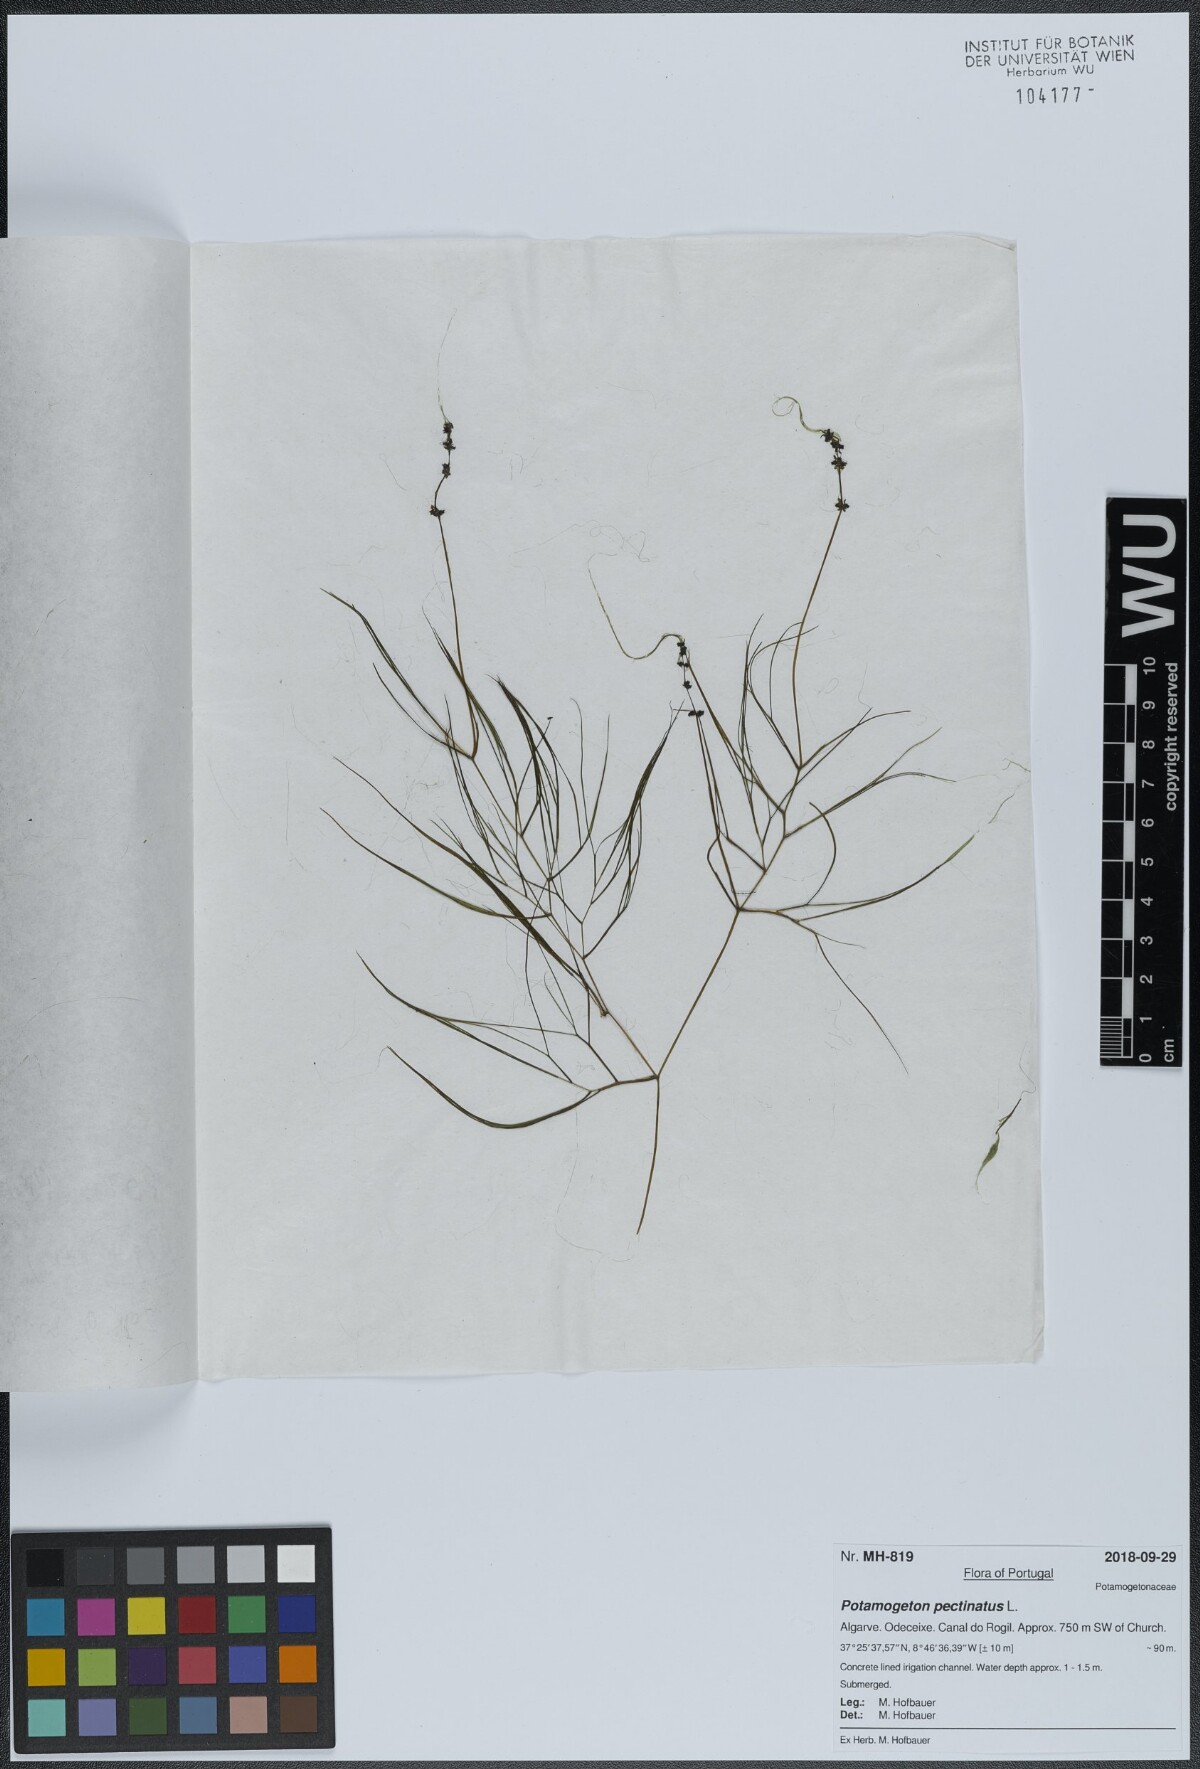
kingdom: Plantae
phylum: Tracheophyta
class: Liliopsida
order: Alismatales
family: Potamogetonaceae
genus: Stuckenia
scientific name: Stuckenia pectinata
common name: Sago pondweed
